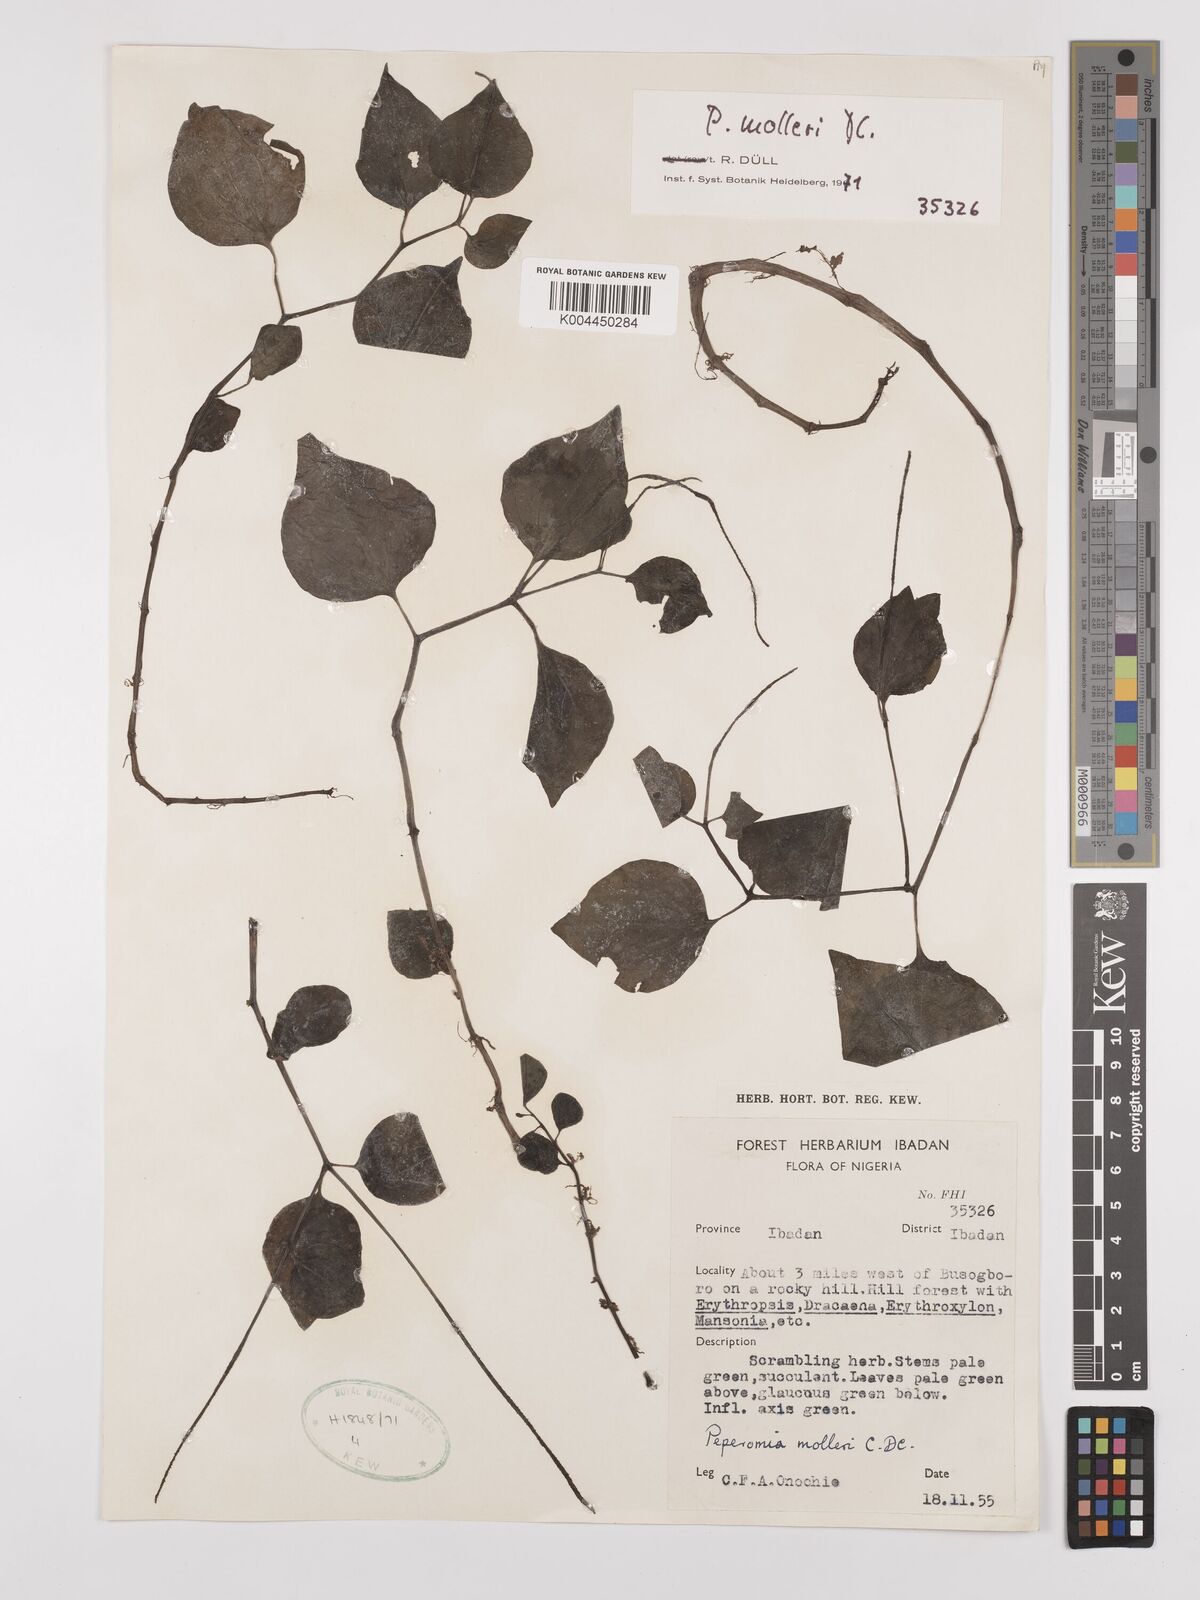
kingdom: Plantae
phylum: Tracheophyta
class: Magnoliopsida
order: Piperales
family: Piperaceae
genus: Peperomia
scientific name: Peperomia molleri
